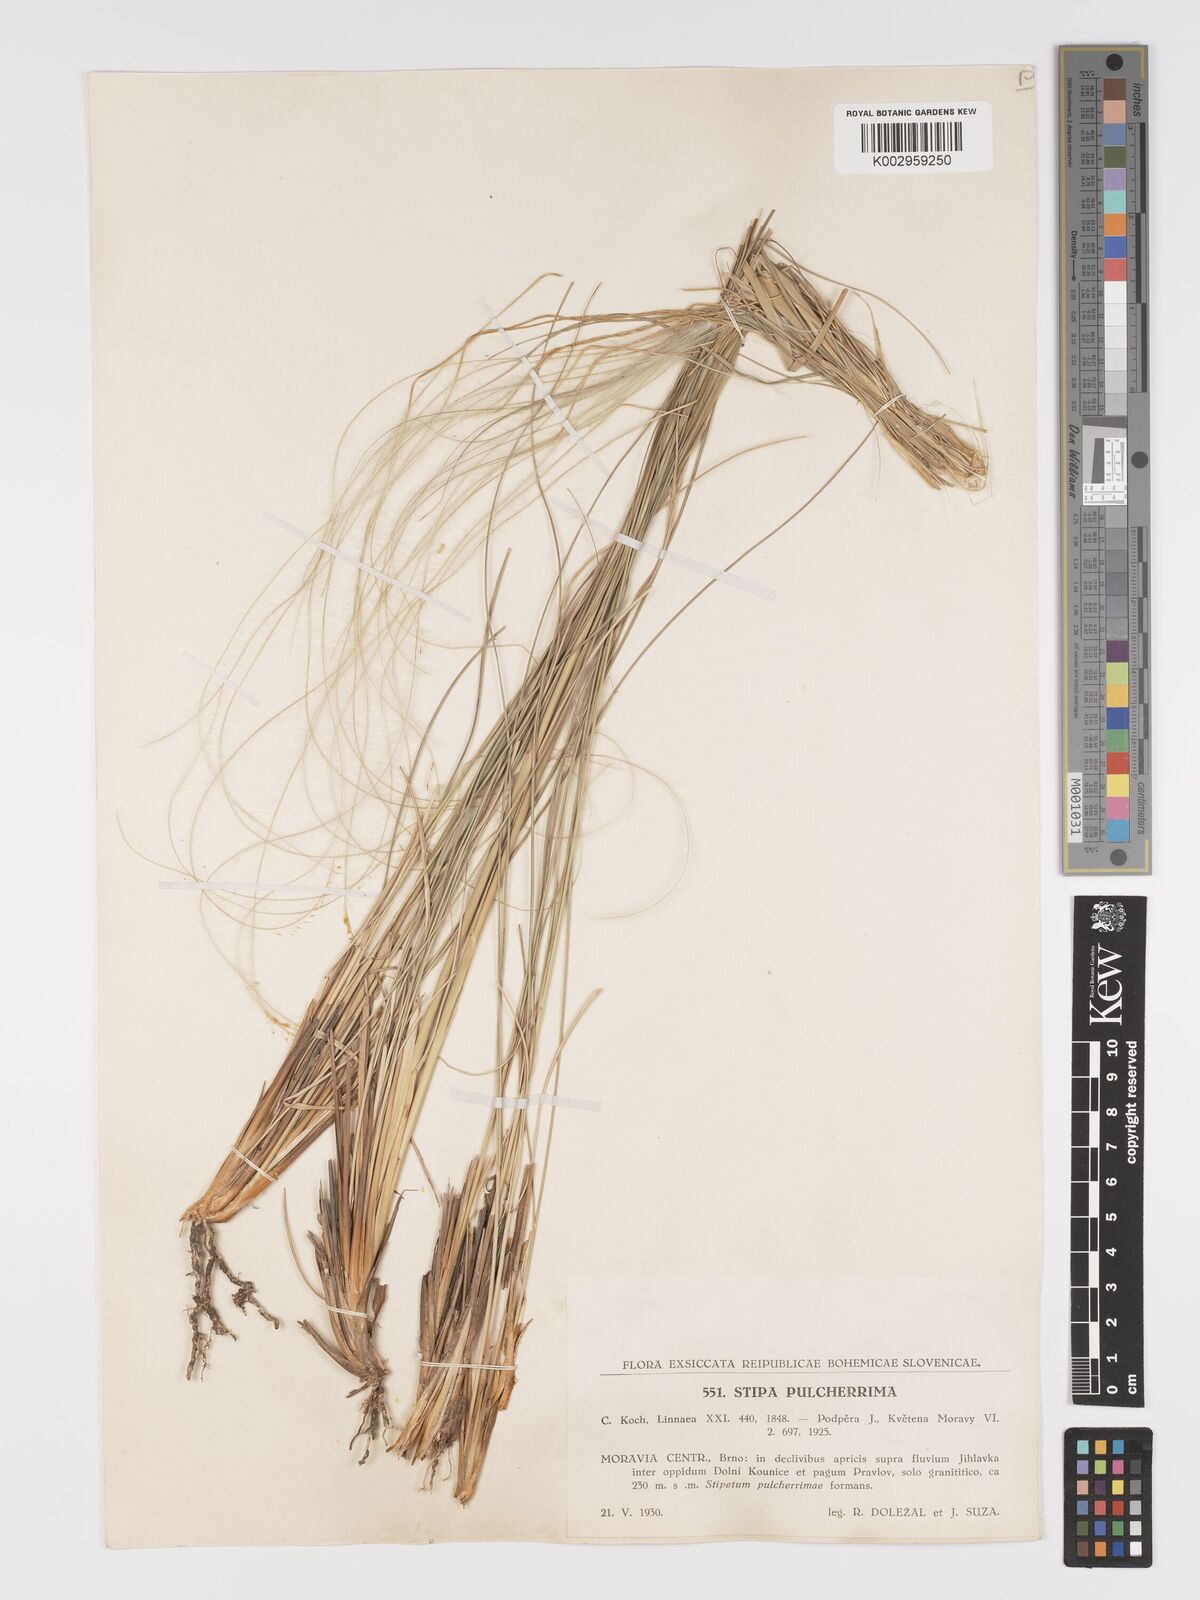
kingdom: Plantae
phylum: Tracheophyta
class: Liliopsida
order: Poales
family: Poaceae
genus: Stipa
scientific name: Stipa pulcherrima
